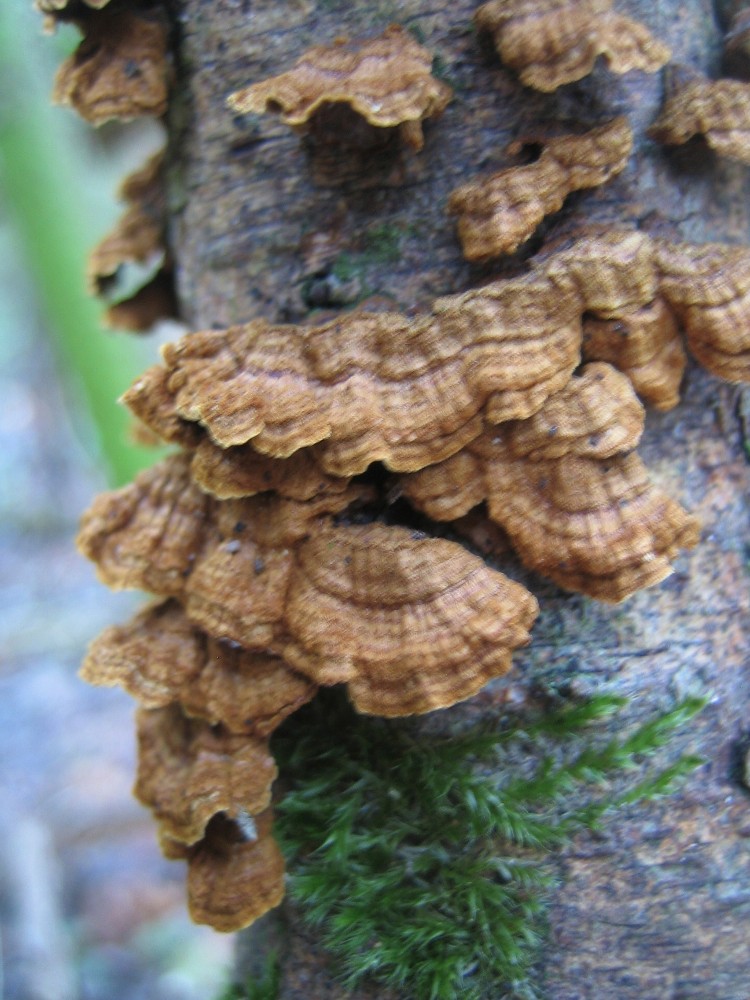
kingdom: Fungi
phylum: Basidiomycota
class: Agaricomycetes
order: Hymenochaetales
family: Hymenochaetaceae
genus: Hydnoporia
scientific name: Hydnoporia tabacina
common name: tobaksbrun ruslædersvamp
